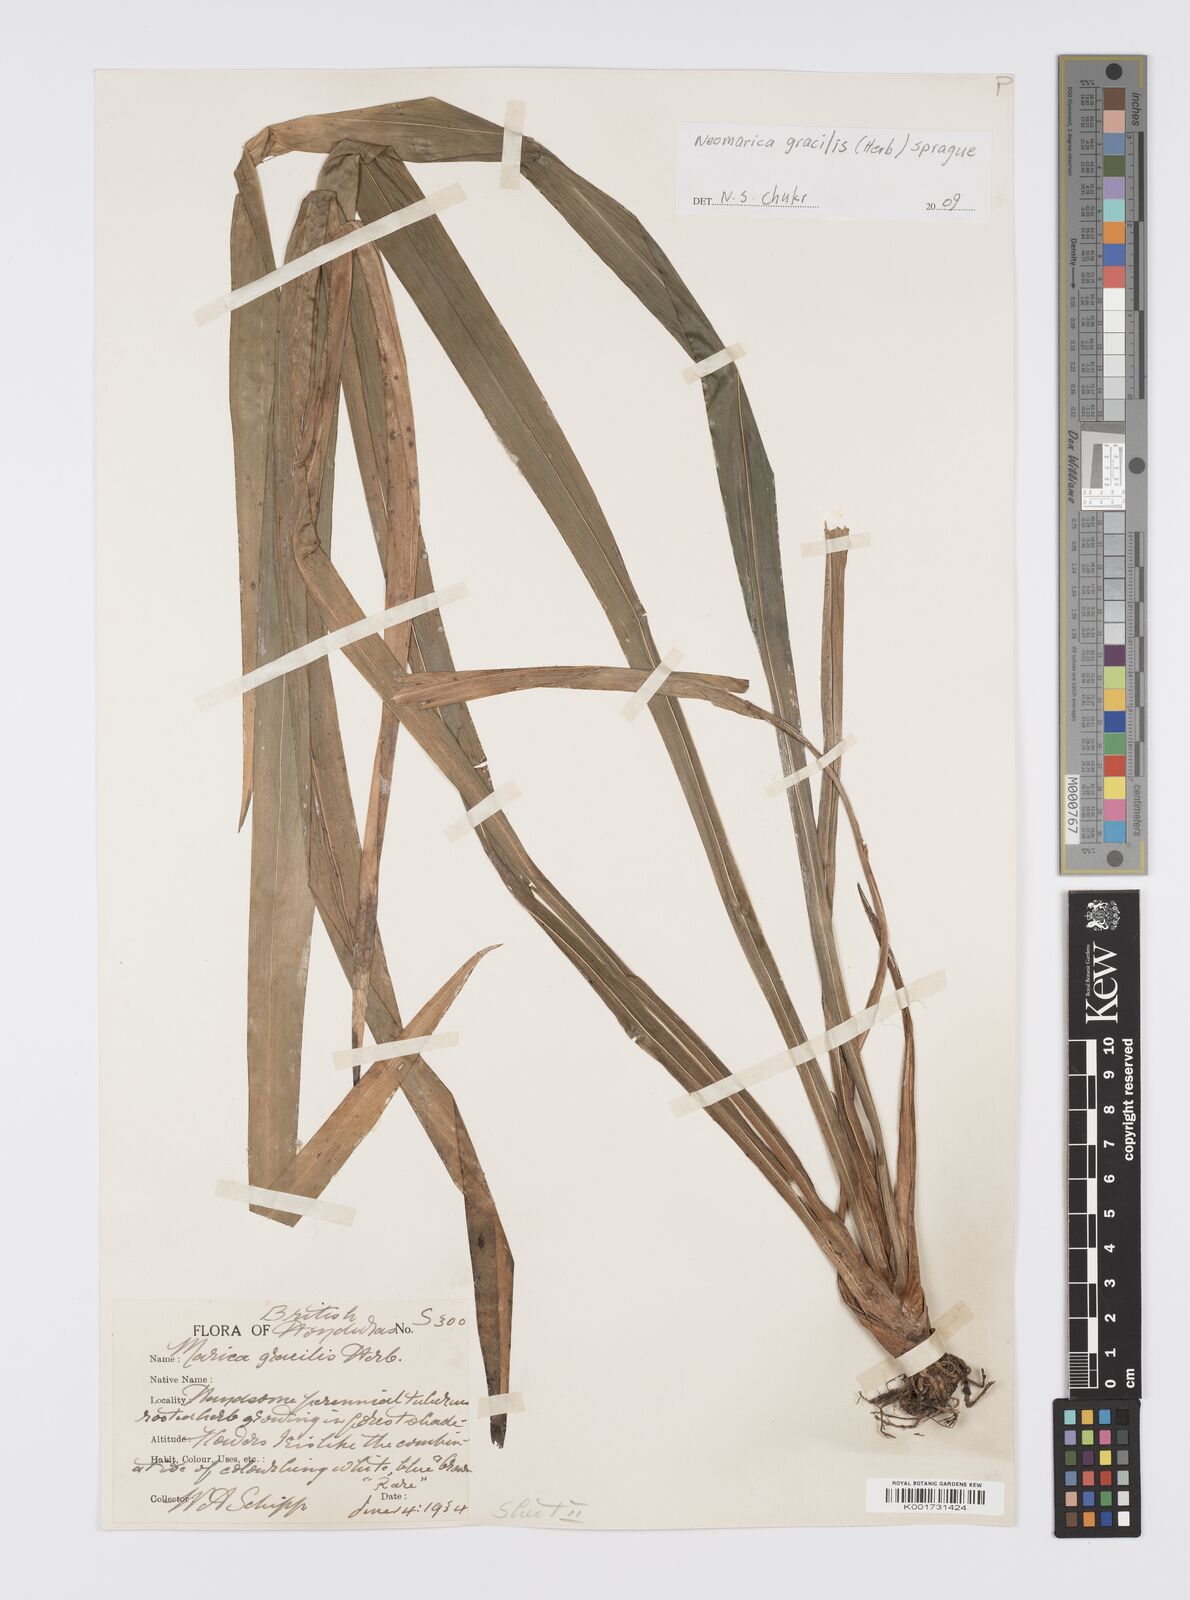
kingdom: Plantae
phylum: Tracheophyta
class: Liliopsida
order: Asparagales
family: Iridaceae
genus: Trimezia
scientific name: Trimezia gracilis
